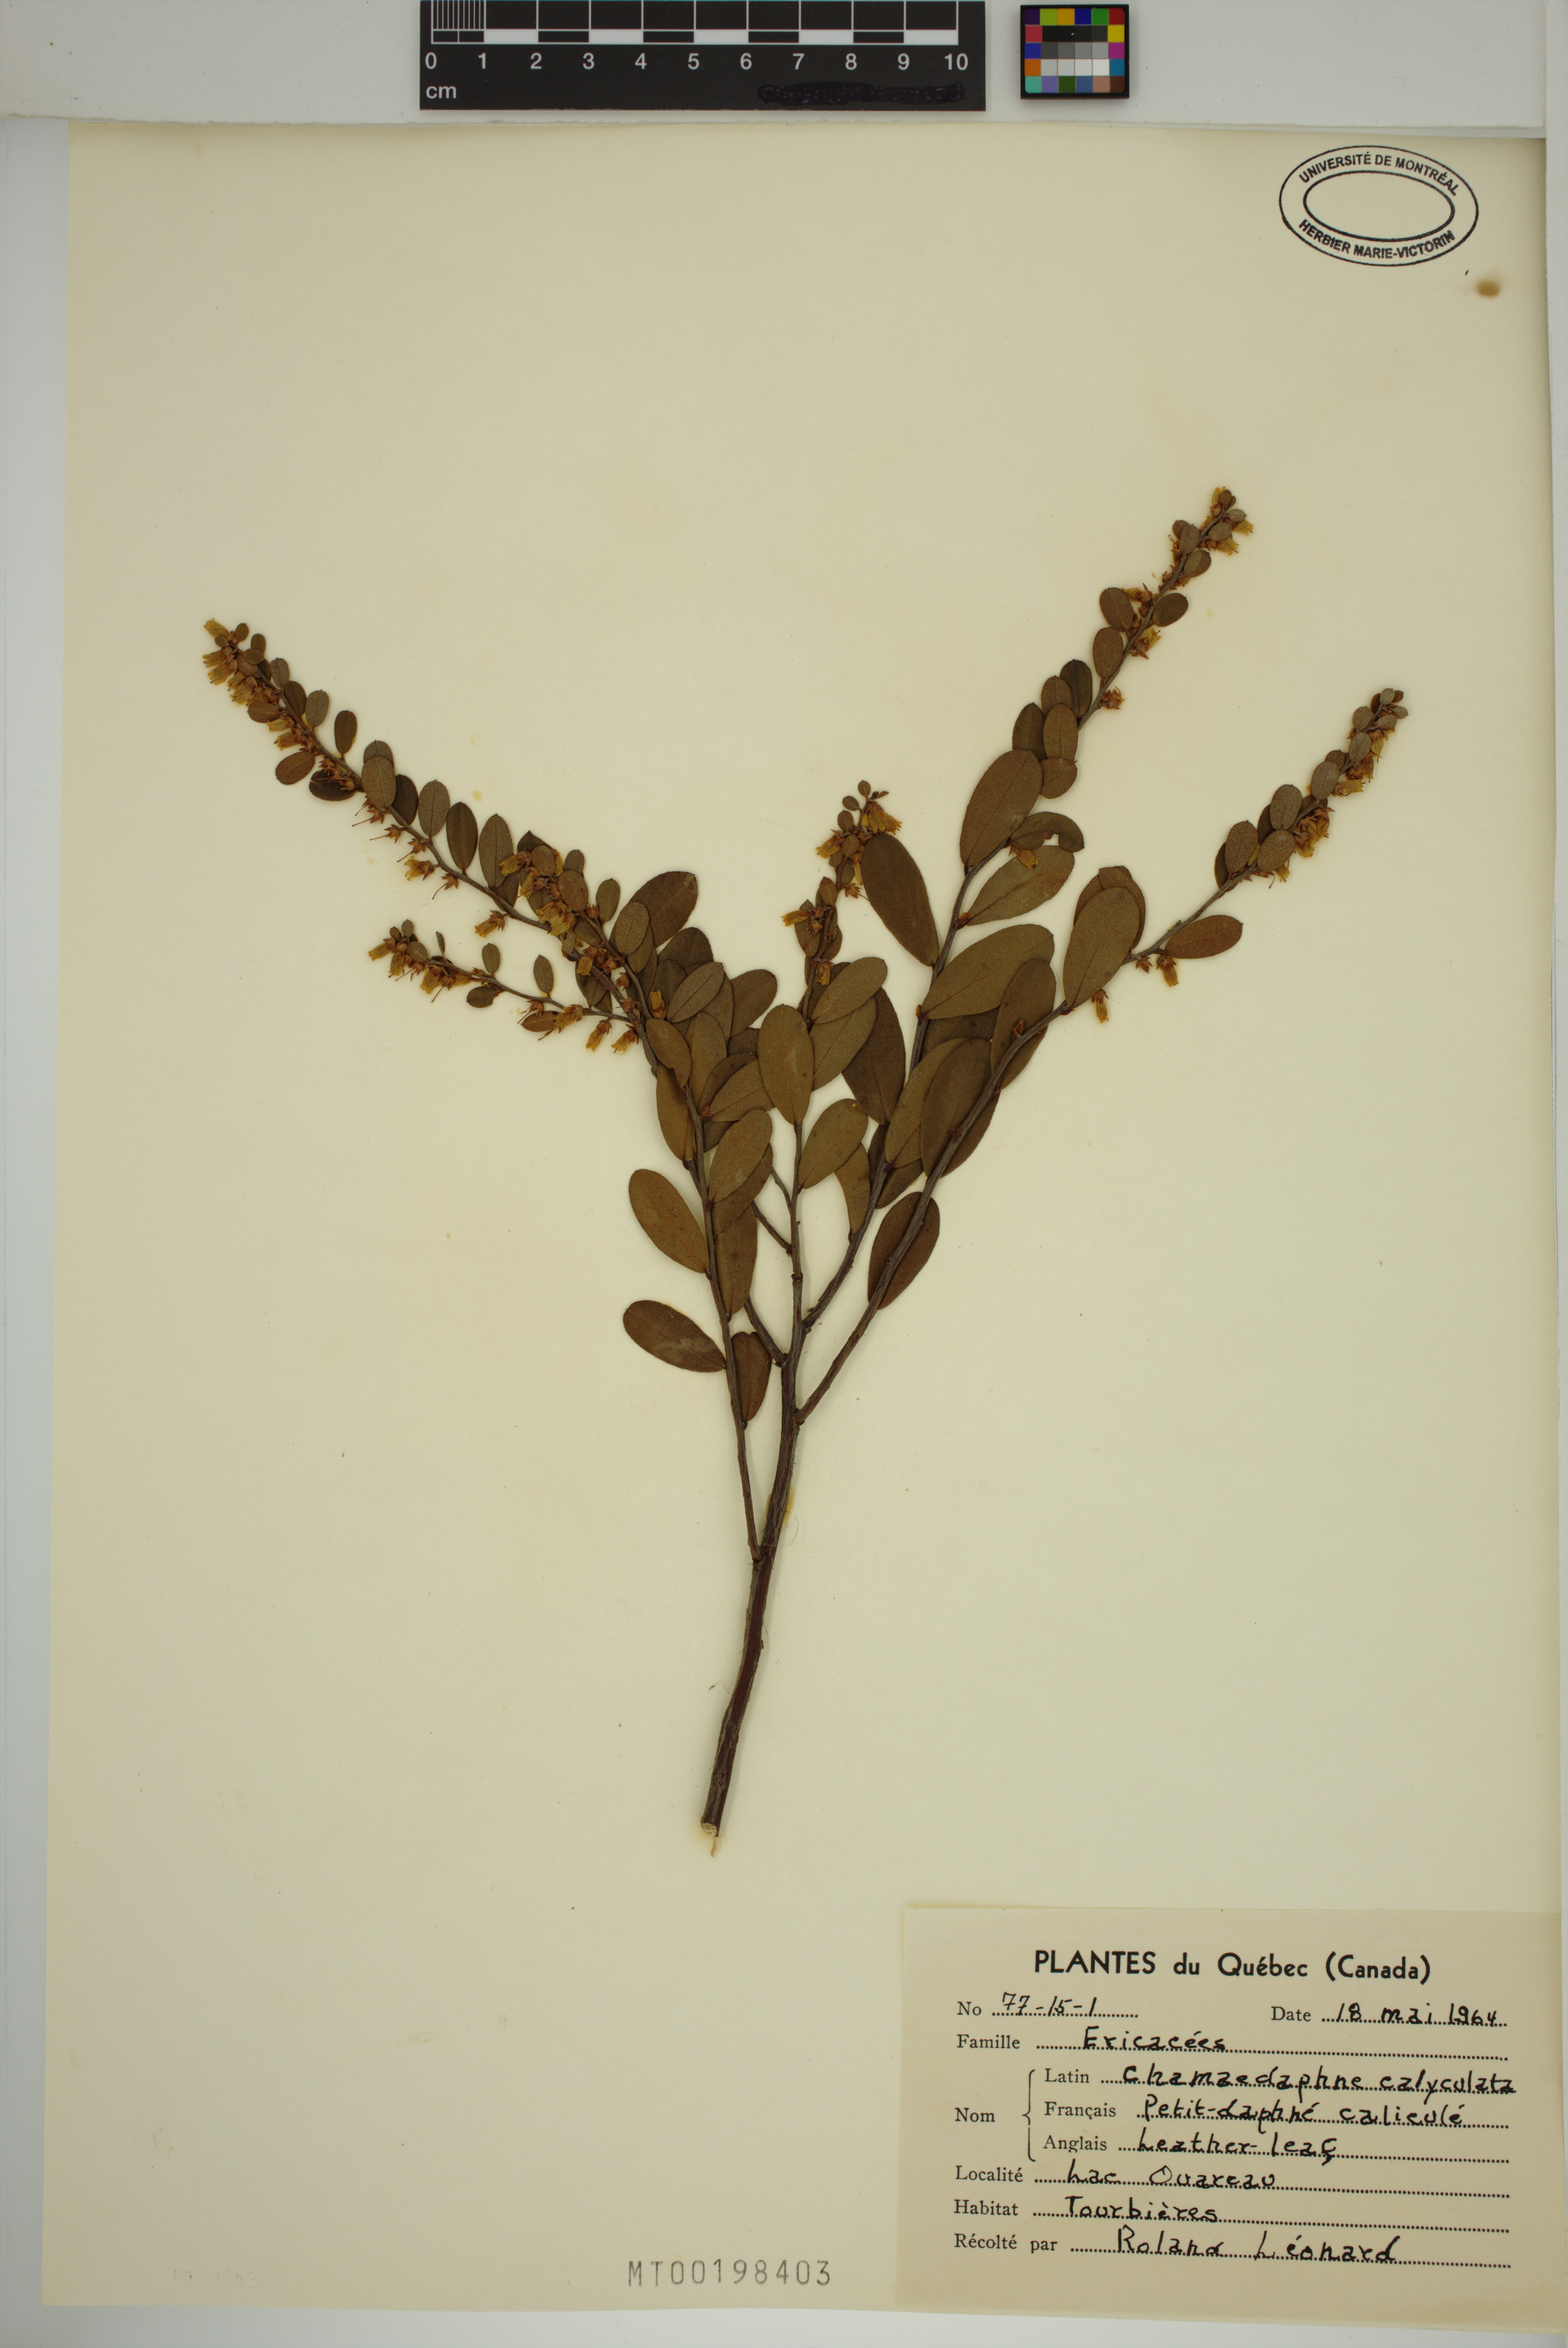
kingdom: Plantae
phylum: Tracheophyta
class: Magnoliopsida
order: Ericales
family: Ericaceae
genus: Chamaedaphne
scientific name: Chamaedaphne calyculata
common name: Leatherleaf
